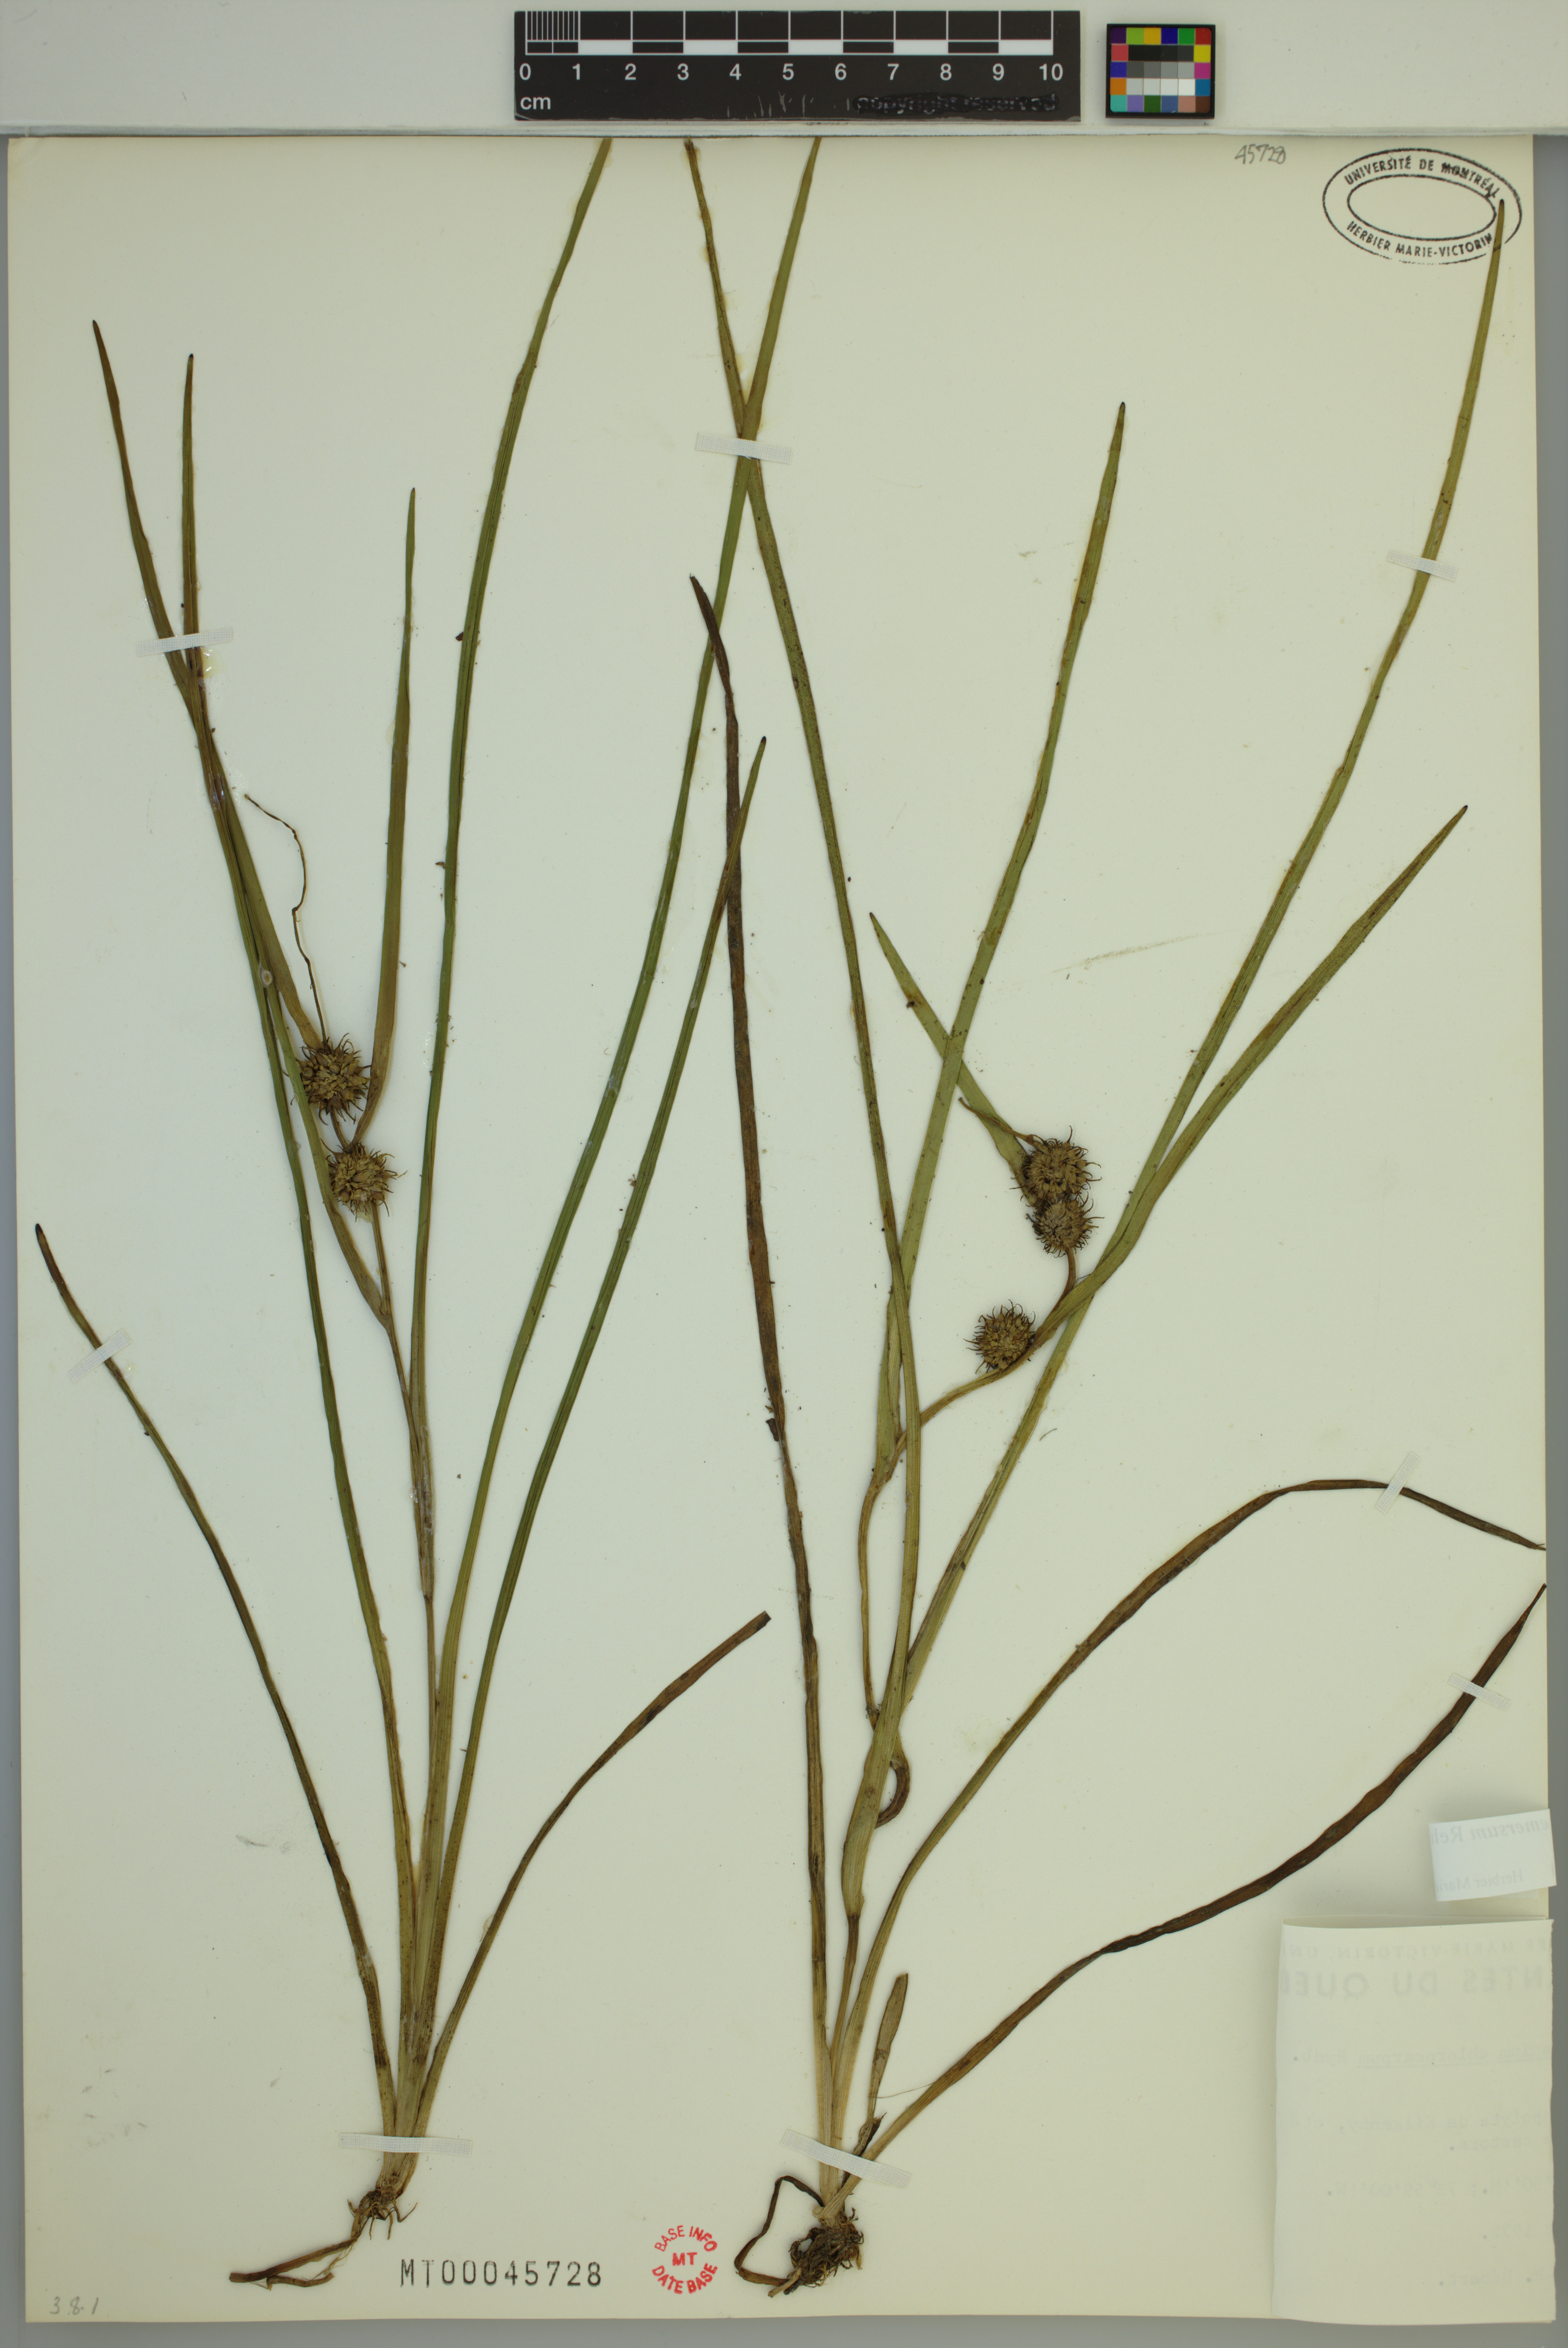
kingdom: Plantae
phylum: Tracheophyta
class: Liliopsida
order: Poales
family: Typhaceae
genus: Sparganium
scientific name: Sparganium emersum
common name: Unbranched bur-reed
